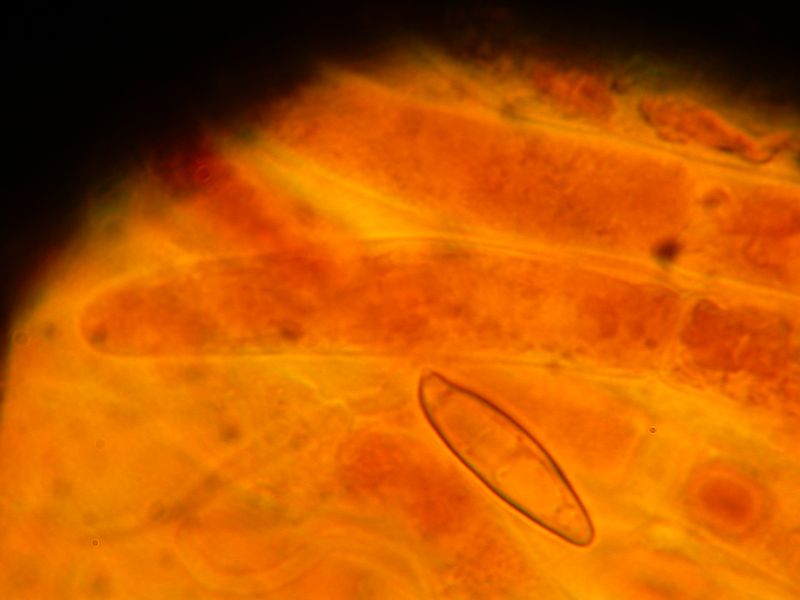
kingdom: Fungi
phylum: Basidiomycota
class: Agaricomycetes
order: Boletales
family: Boletaceae
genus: Leccinum
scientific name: Leccinum cyaneobasileucum
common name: almindelig skælrørhat
